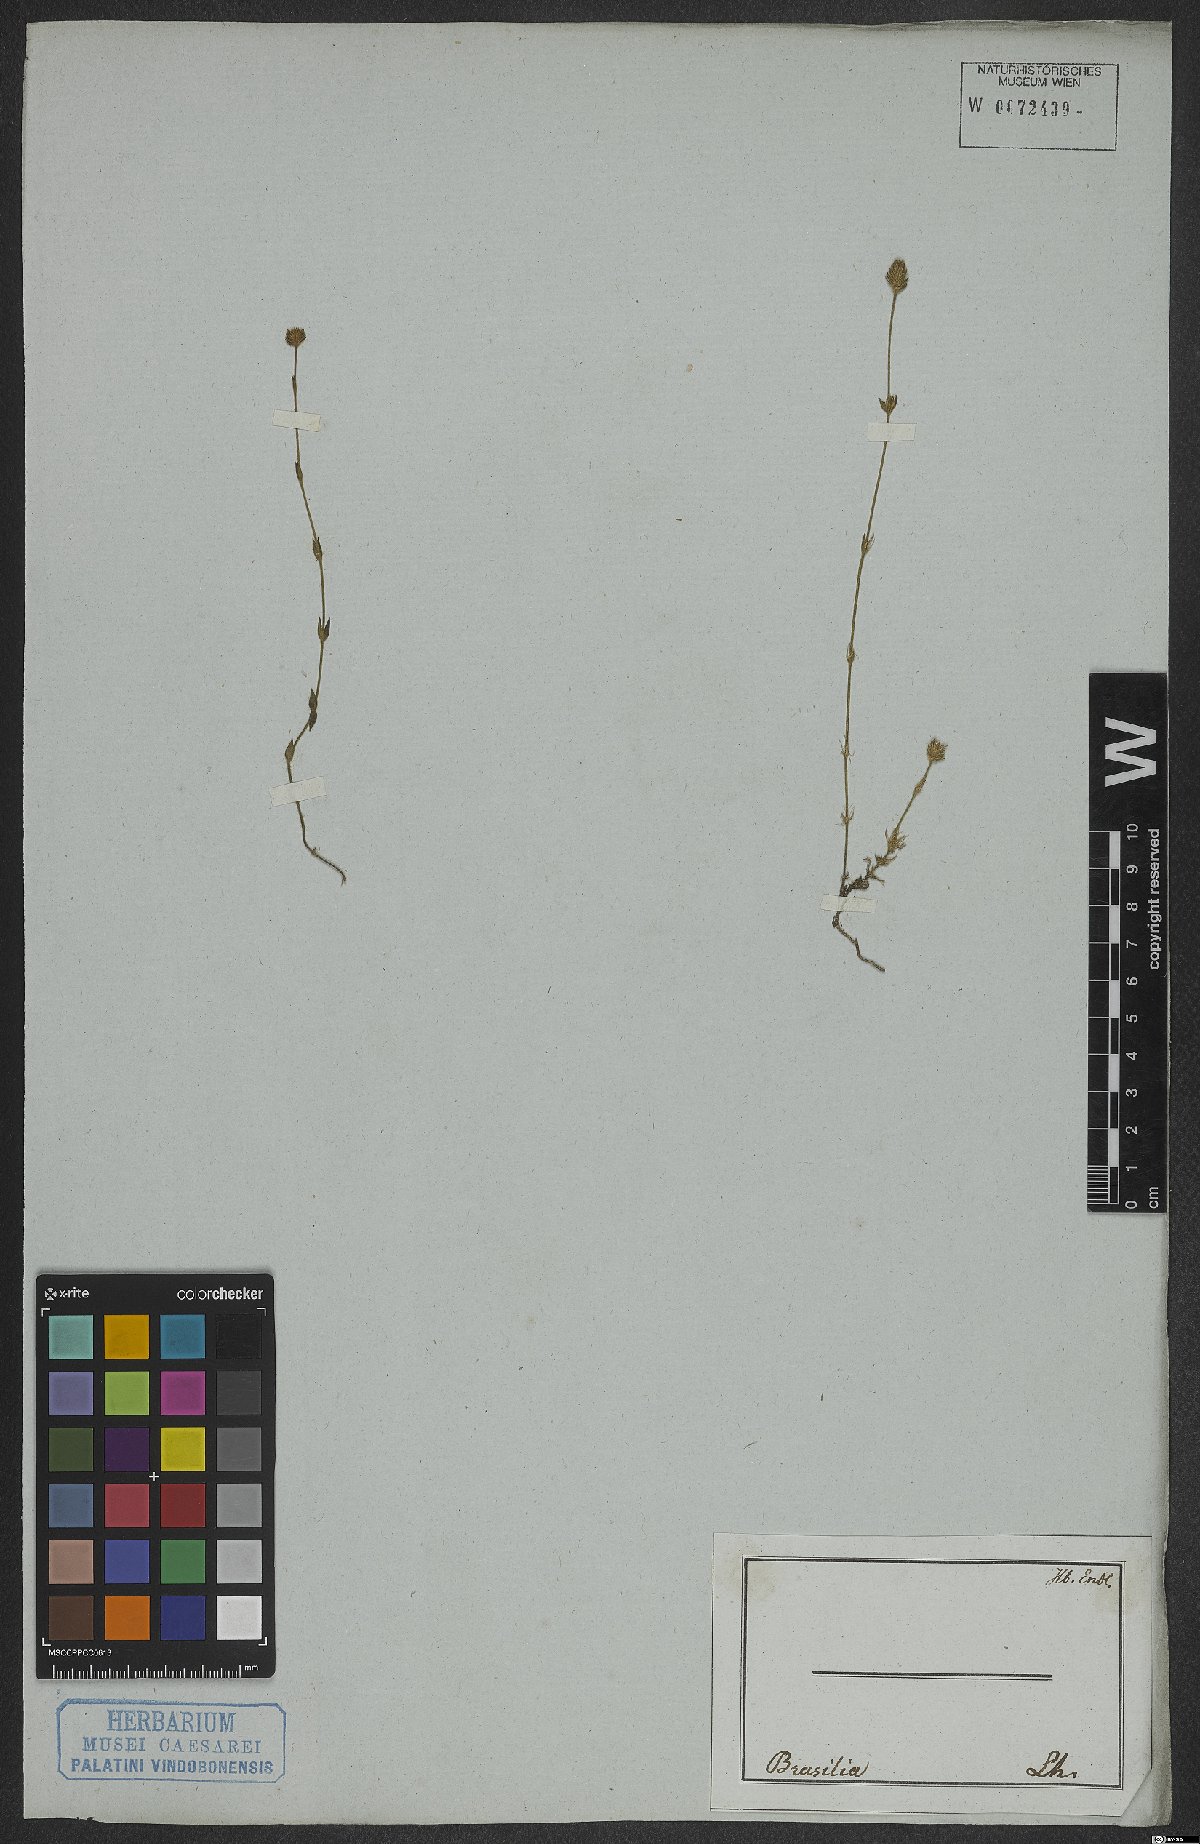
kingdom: Plantae
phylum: Tracheophyta
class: Magnoliopsida
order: Gentianales
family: Rubiaceae
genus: Perama
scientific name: Perama
